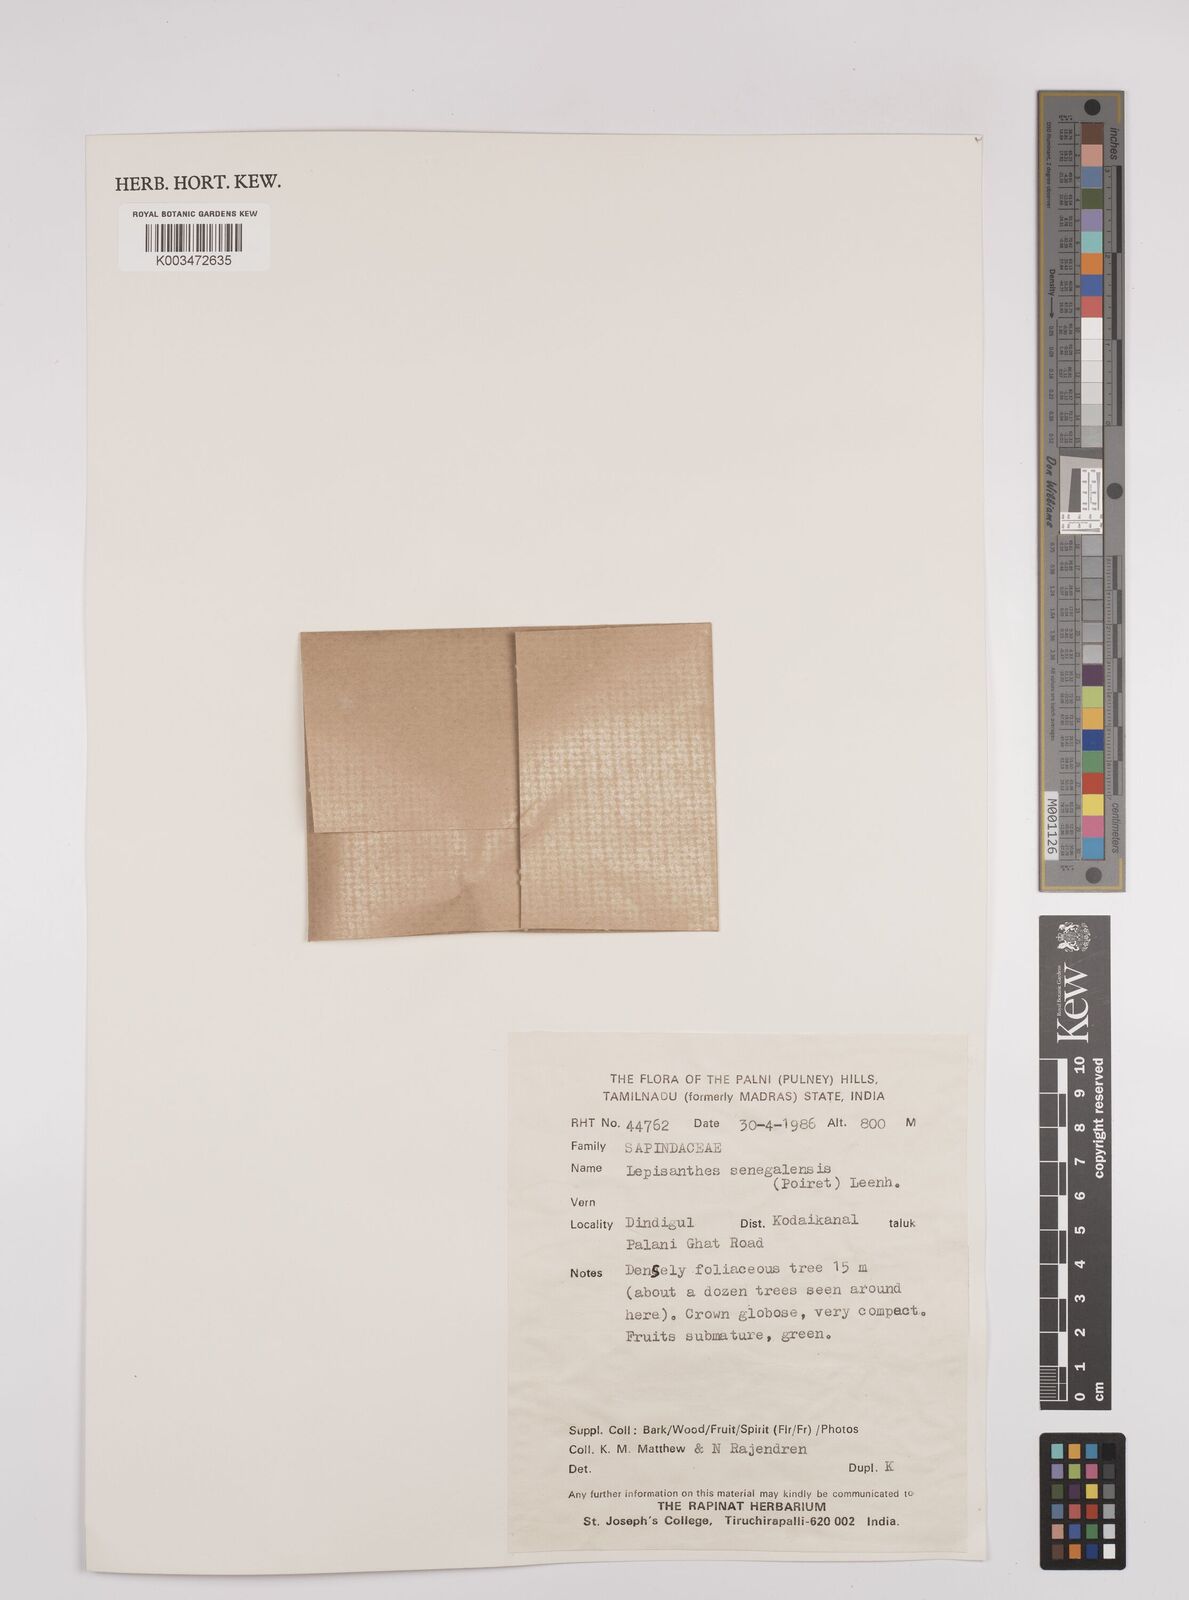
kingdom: Plantae
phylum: Tracheophyta
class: Magnoliopsida
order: Sapindales
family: Sapindaceae
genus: Lepisanthes
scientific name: Lepisanthes senegalensis
